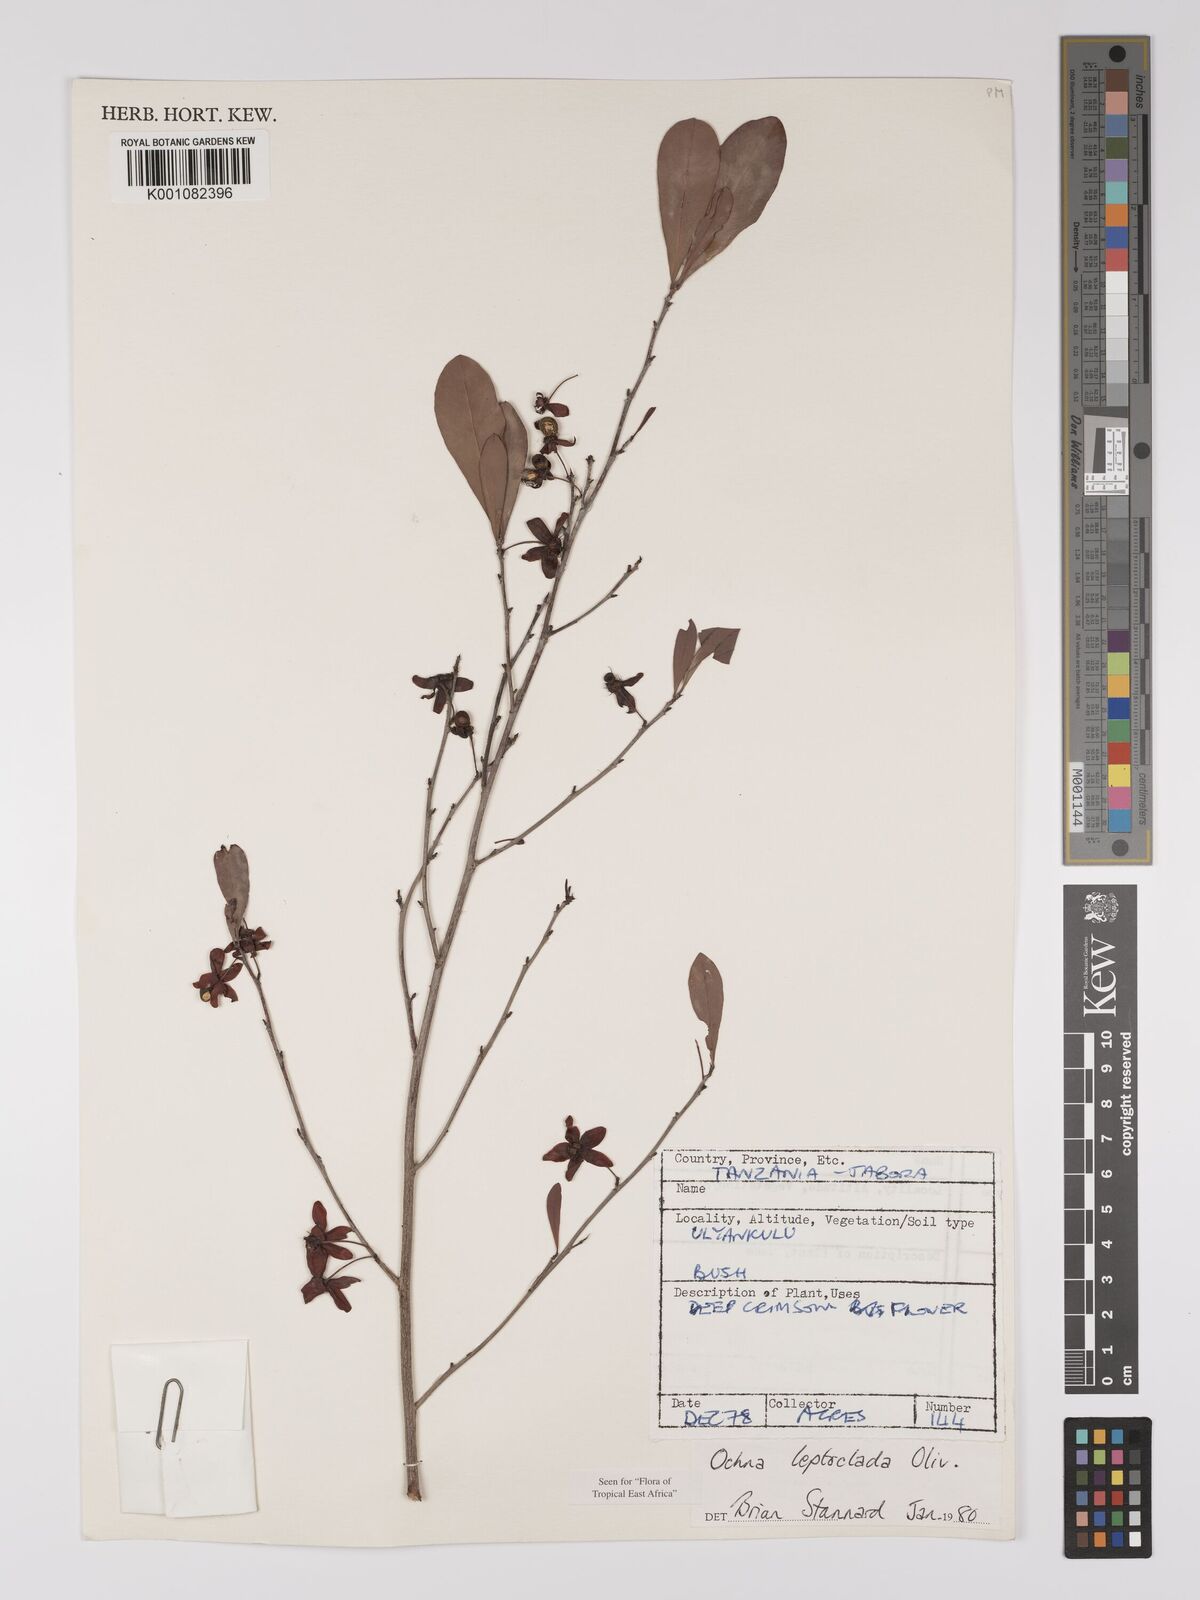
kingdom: Plantae
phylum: Tracheophyta
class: Magnoliopsida
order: Malpighiales
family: Ochnaceae
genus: Ochna
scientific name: Ochna leptoclada
